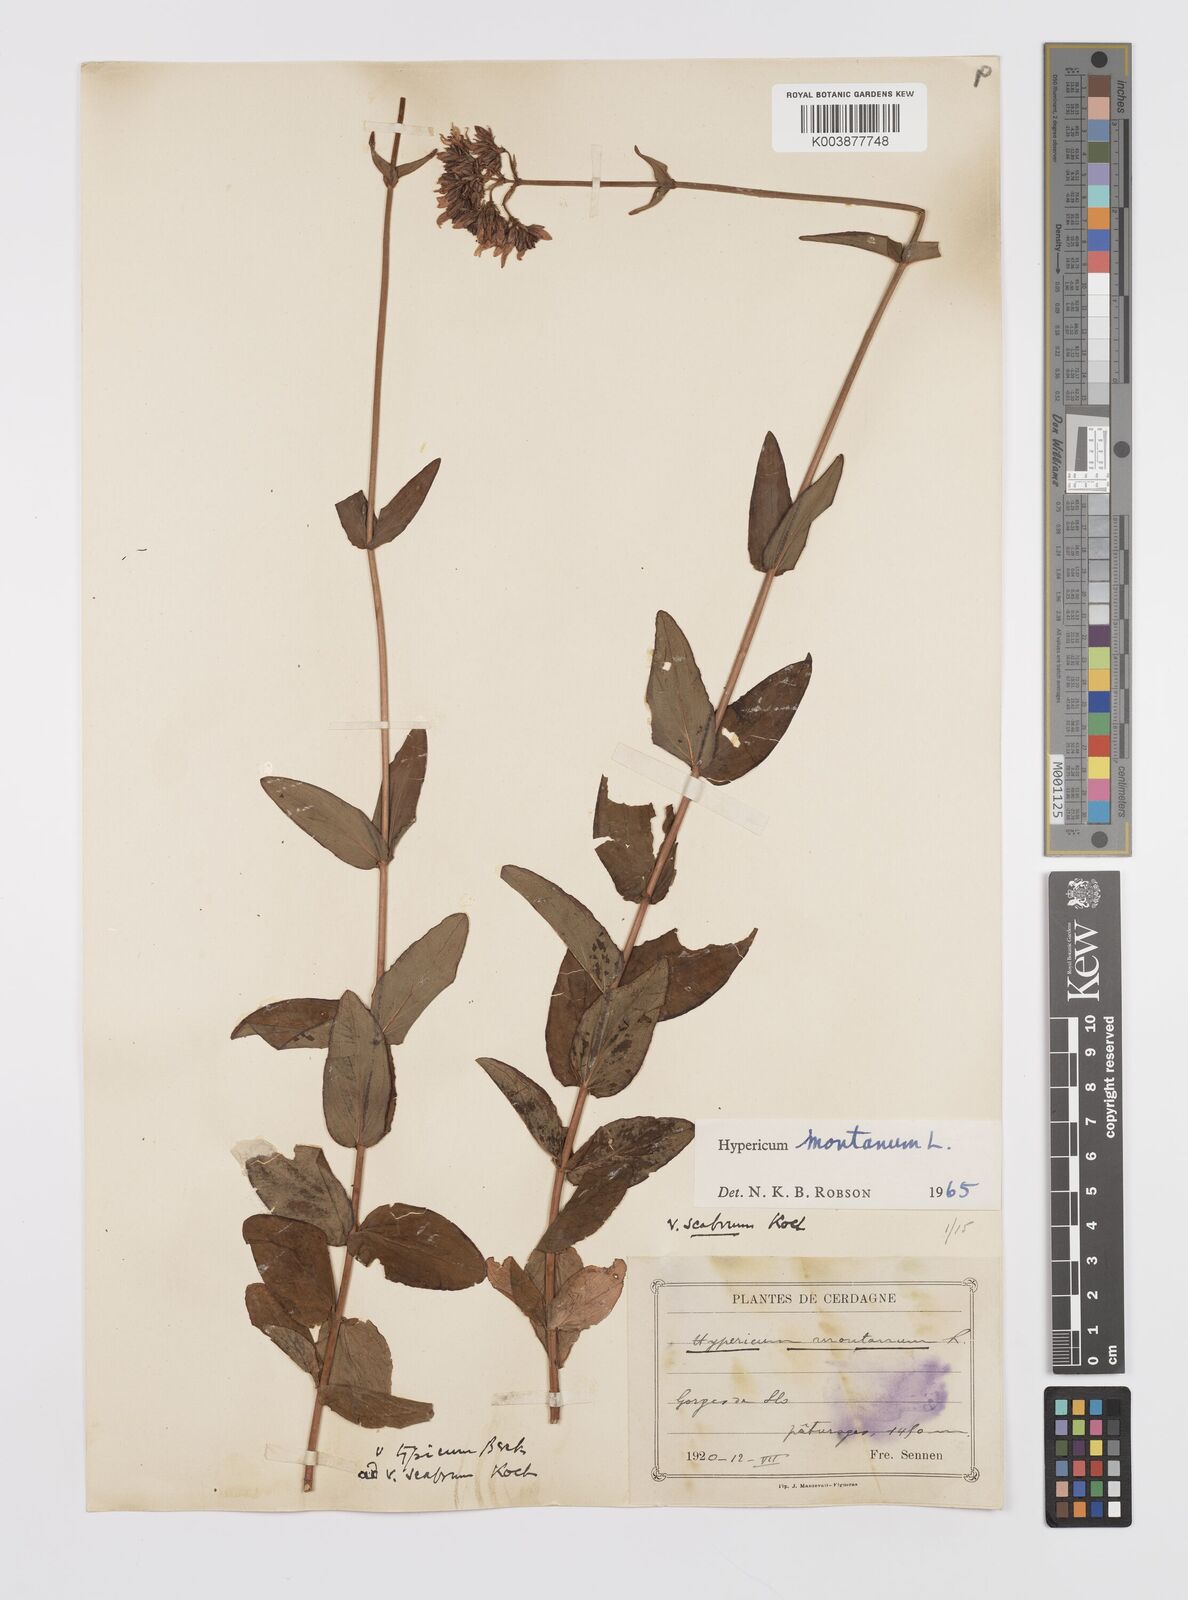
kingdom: Plantae
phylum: Tracheophyta
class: Magnoliopsida
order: Malpighiales
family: Hypericaceae
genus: Hypericum
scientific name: Hypericum montanum
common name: Pale st. john's-wort
